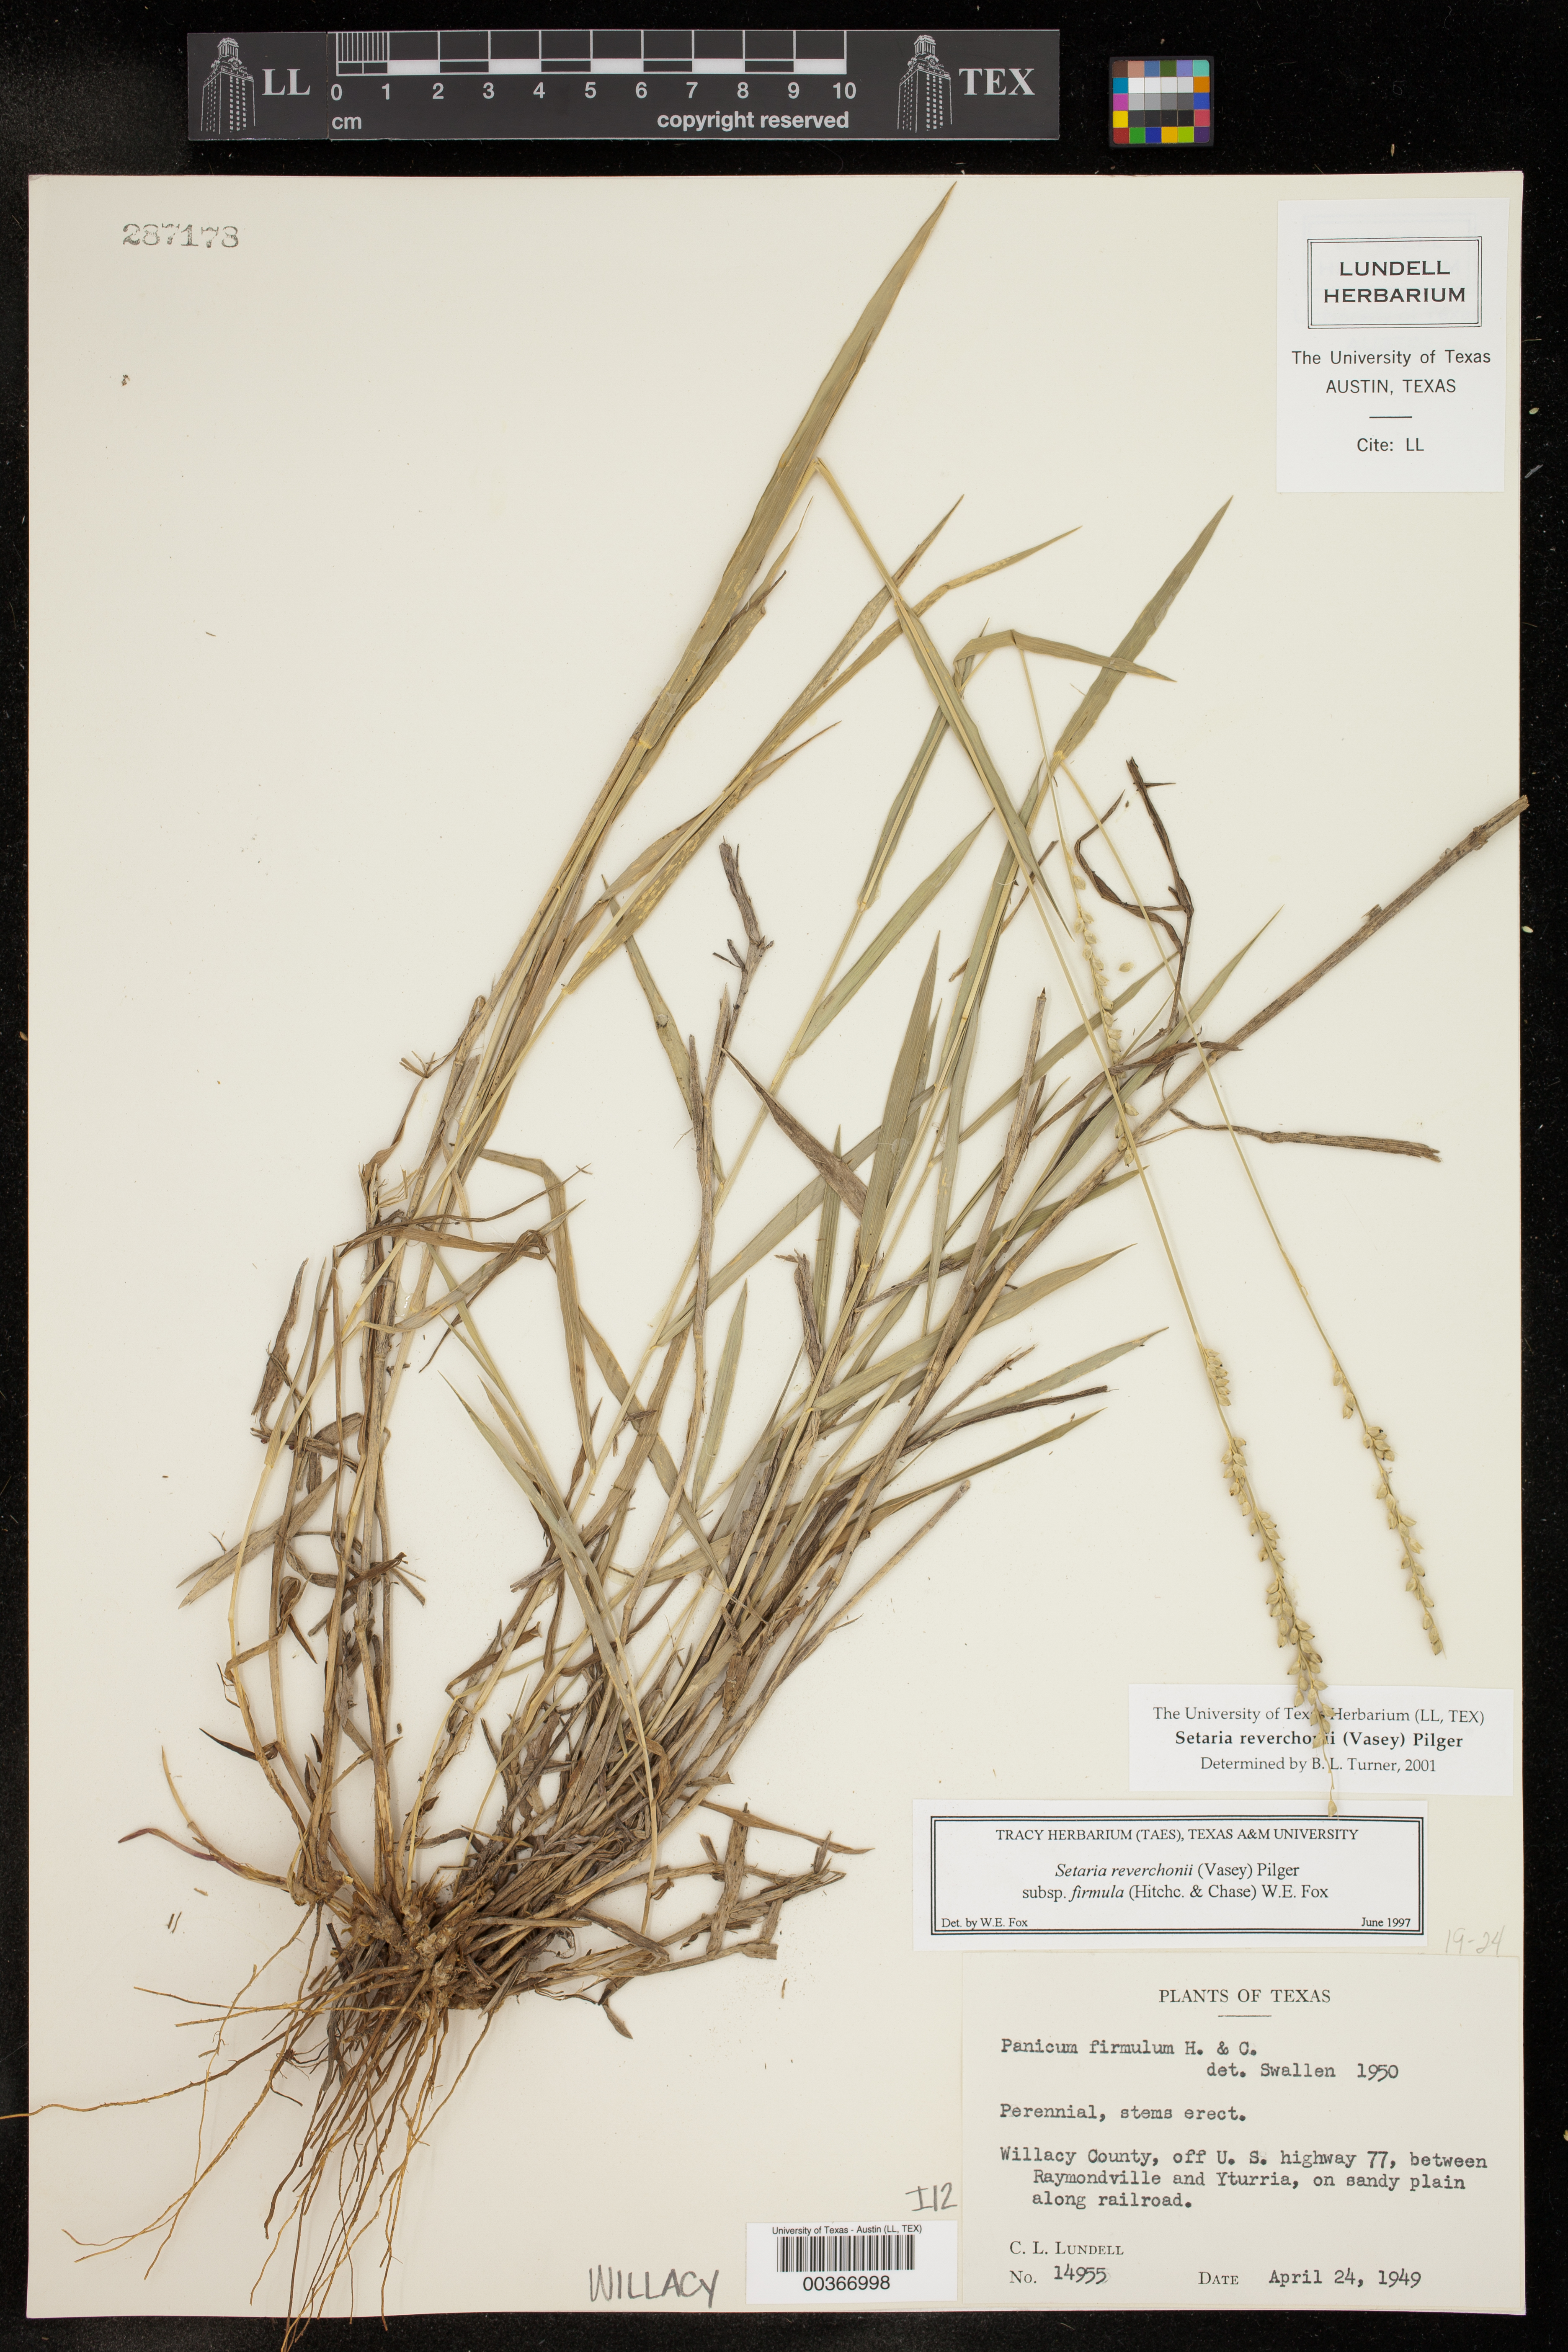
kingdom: Plantae
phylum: Tracheophyta
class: Liliopsida
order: Poales
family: Poaceae
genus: Setaria
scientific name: Setaria reverchonii
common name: Reverchon's bristle grass
